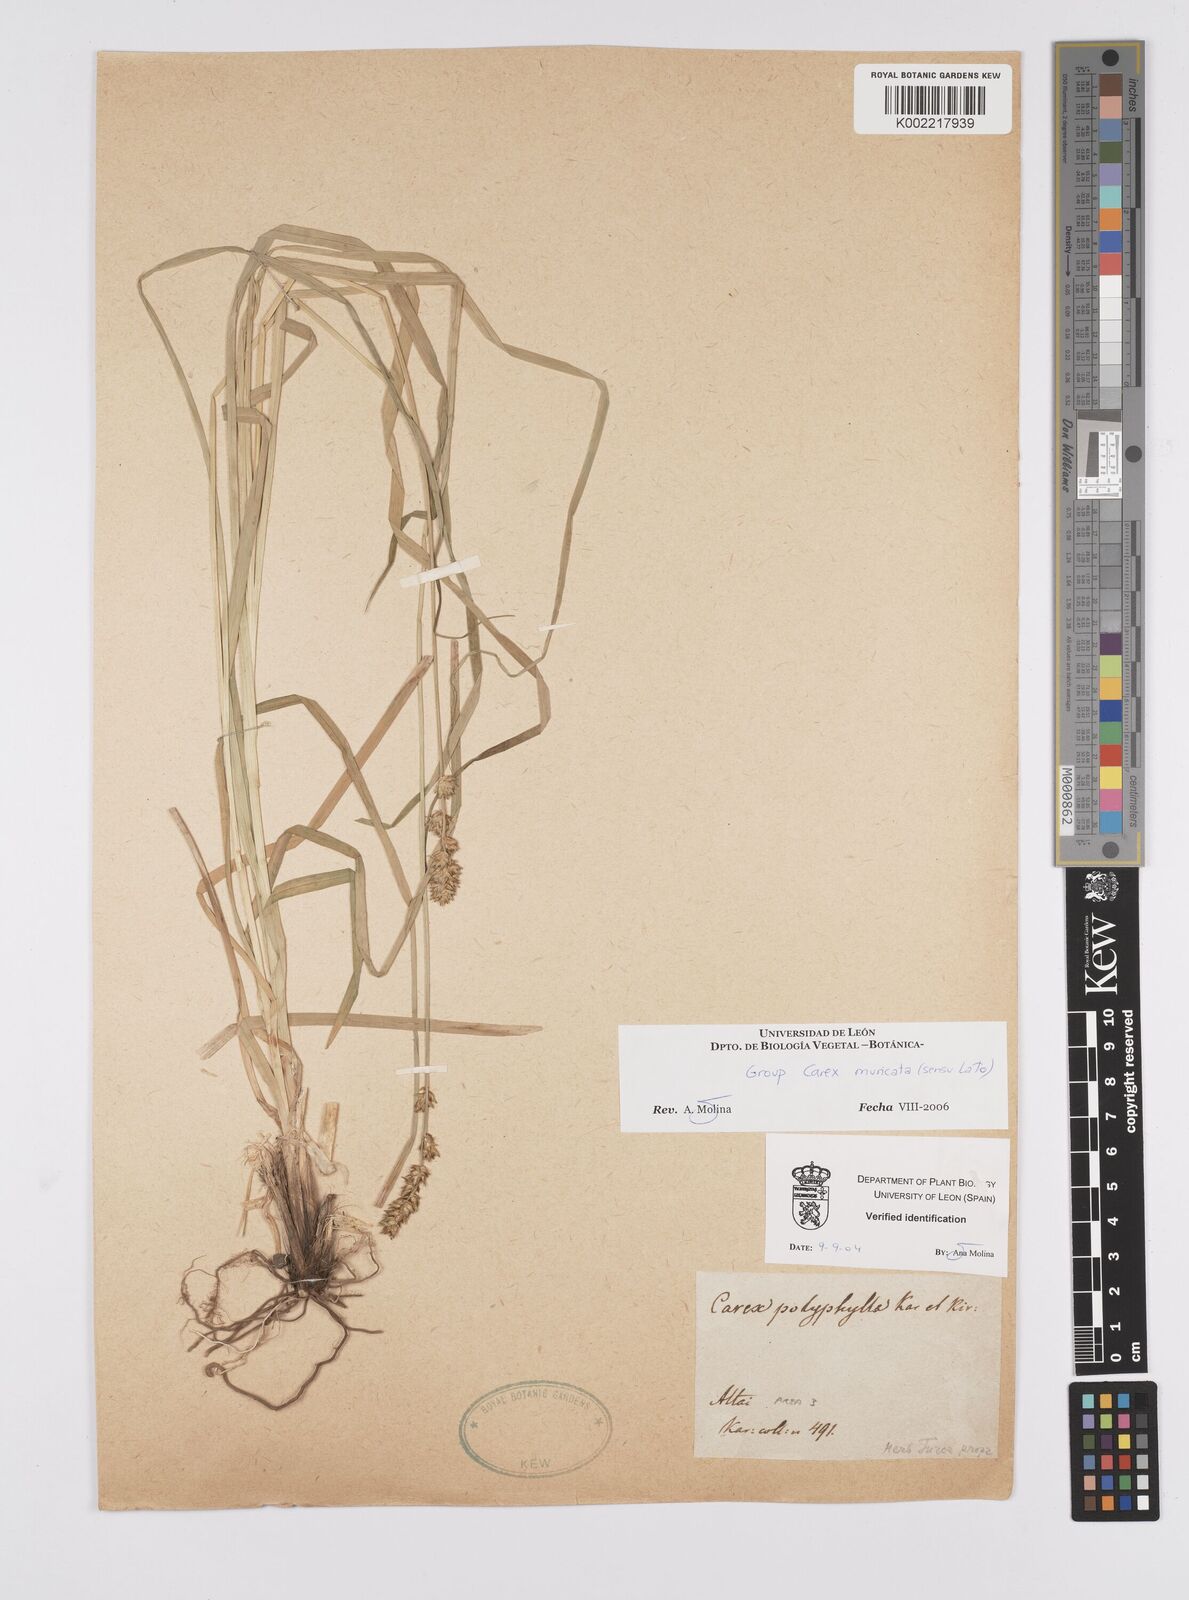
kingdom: Plantae
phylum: Tracheophyta
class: Liliopsida
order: Poales
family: Cyperaceae
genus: Carex
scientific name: Carex divulsa
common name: Grassland sedge
